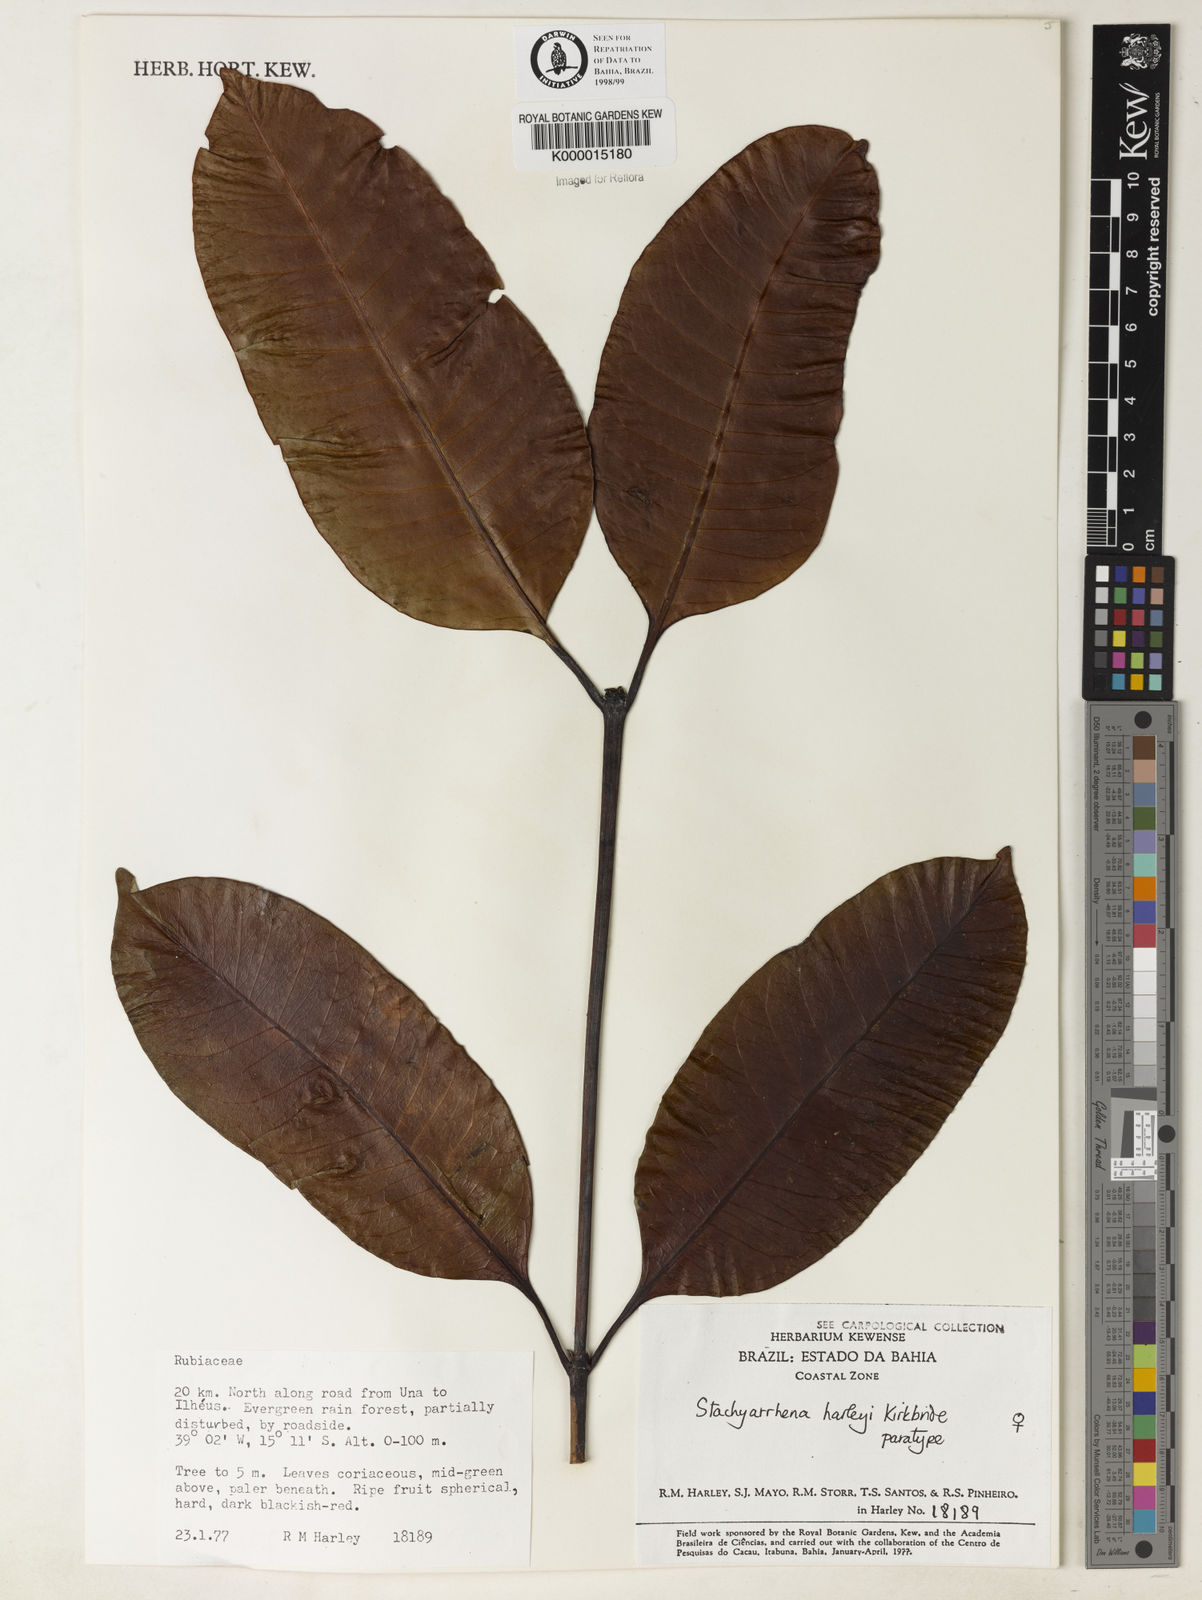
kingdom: Plantae
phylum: Tracheophyta
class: Magnoliopsida
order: Gentianales
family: Rubiaceae
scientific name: Rubiaceae
